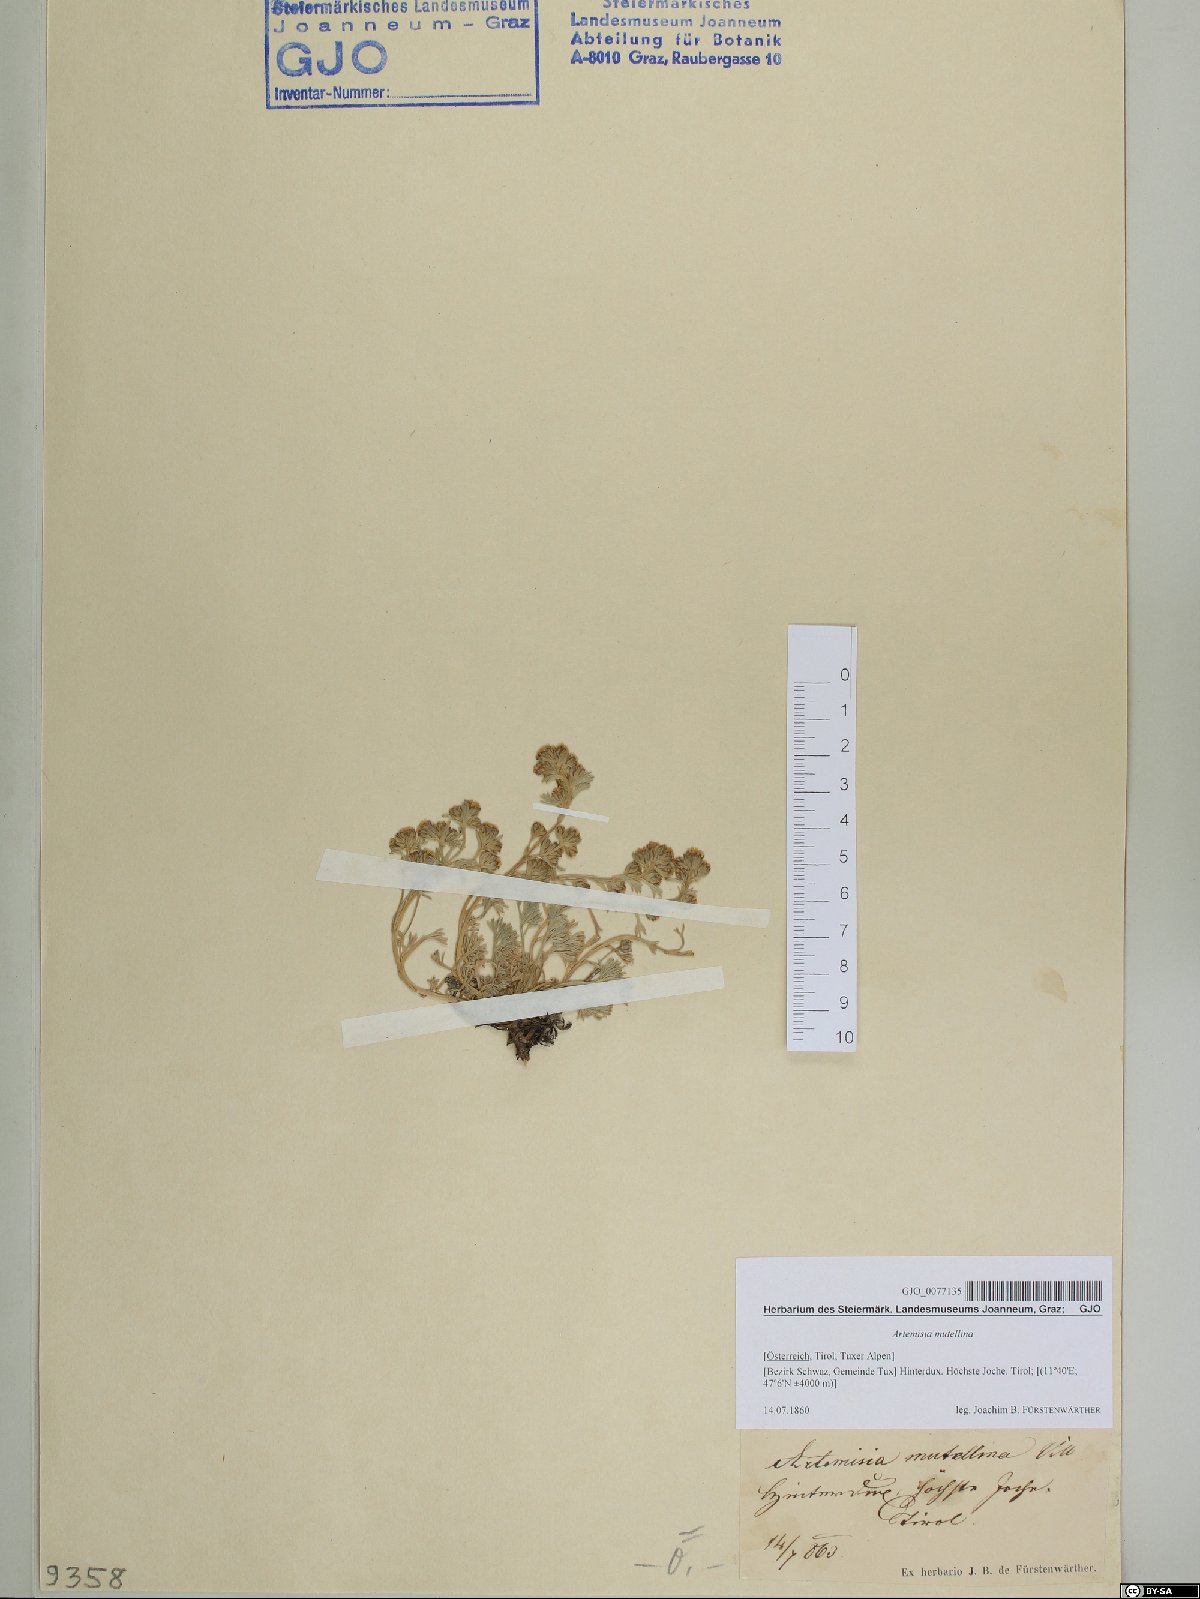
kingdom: Plantae
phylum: Tracheophyta
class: Magnoliopsida
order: Asterales
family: Asteraceae
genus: Artemisia
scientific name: Artemisia mutellina
